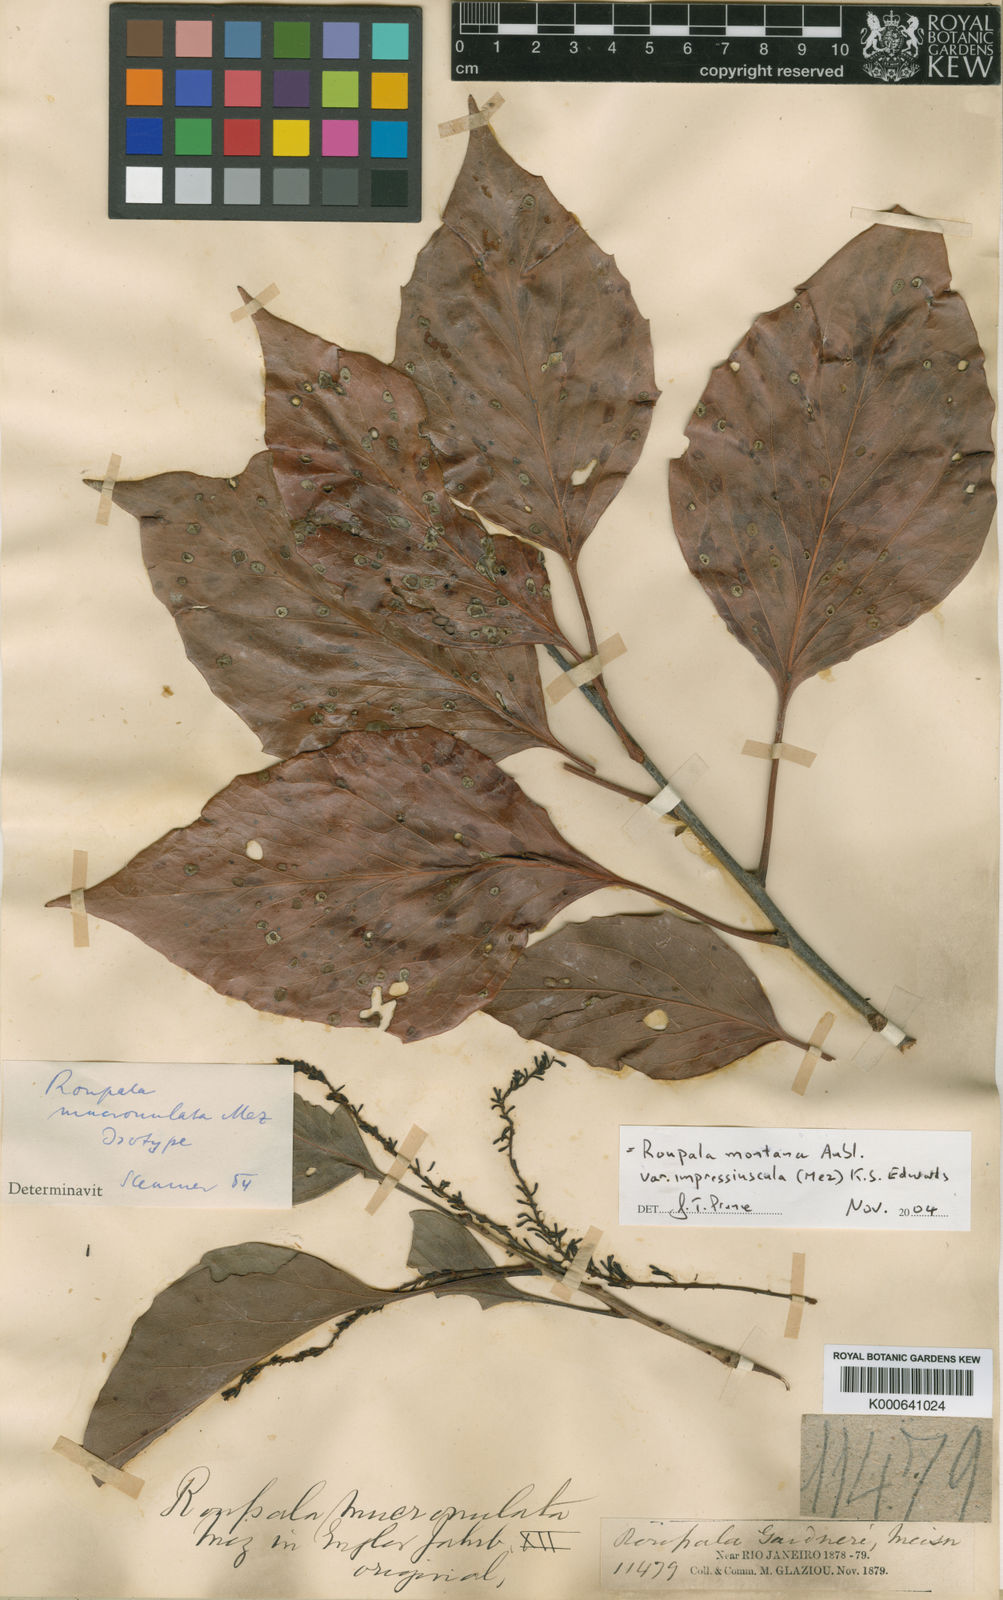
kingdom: Plantae
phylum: Tracheophyta
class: Magnoliopsida
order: Proteales
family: Proteaceae
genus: Roupala
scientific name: Roupala montana
